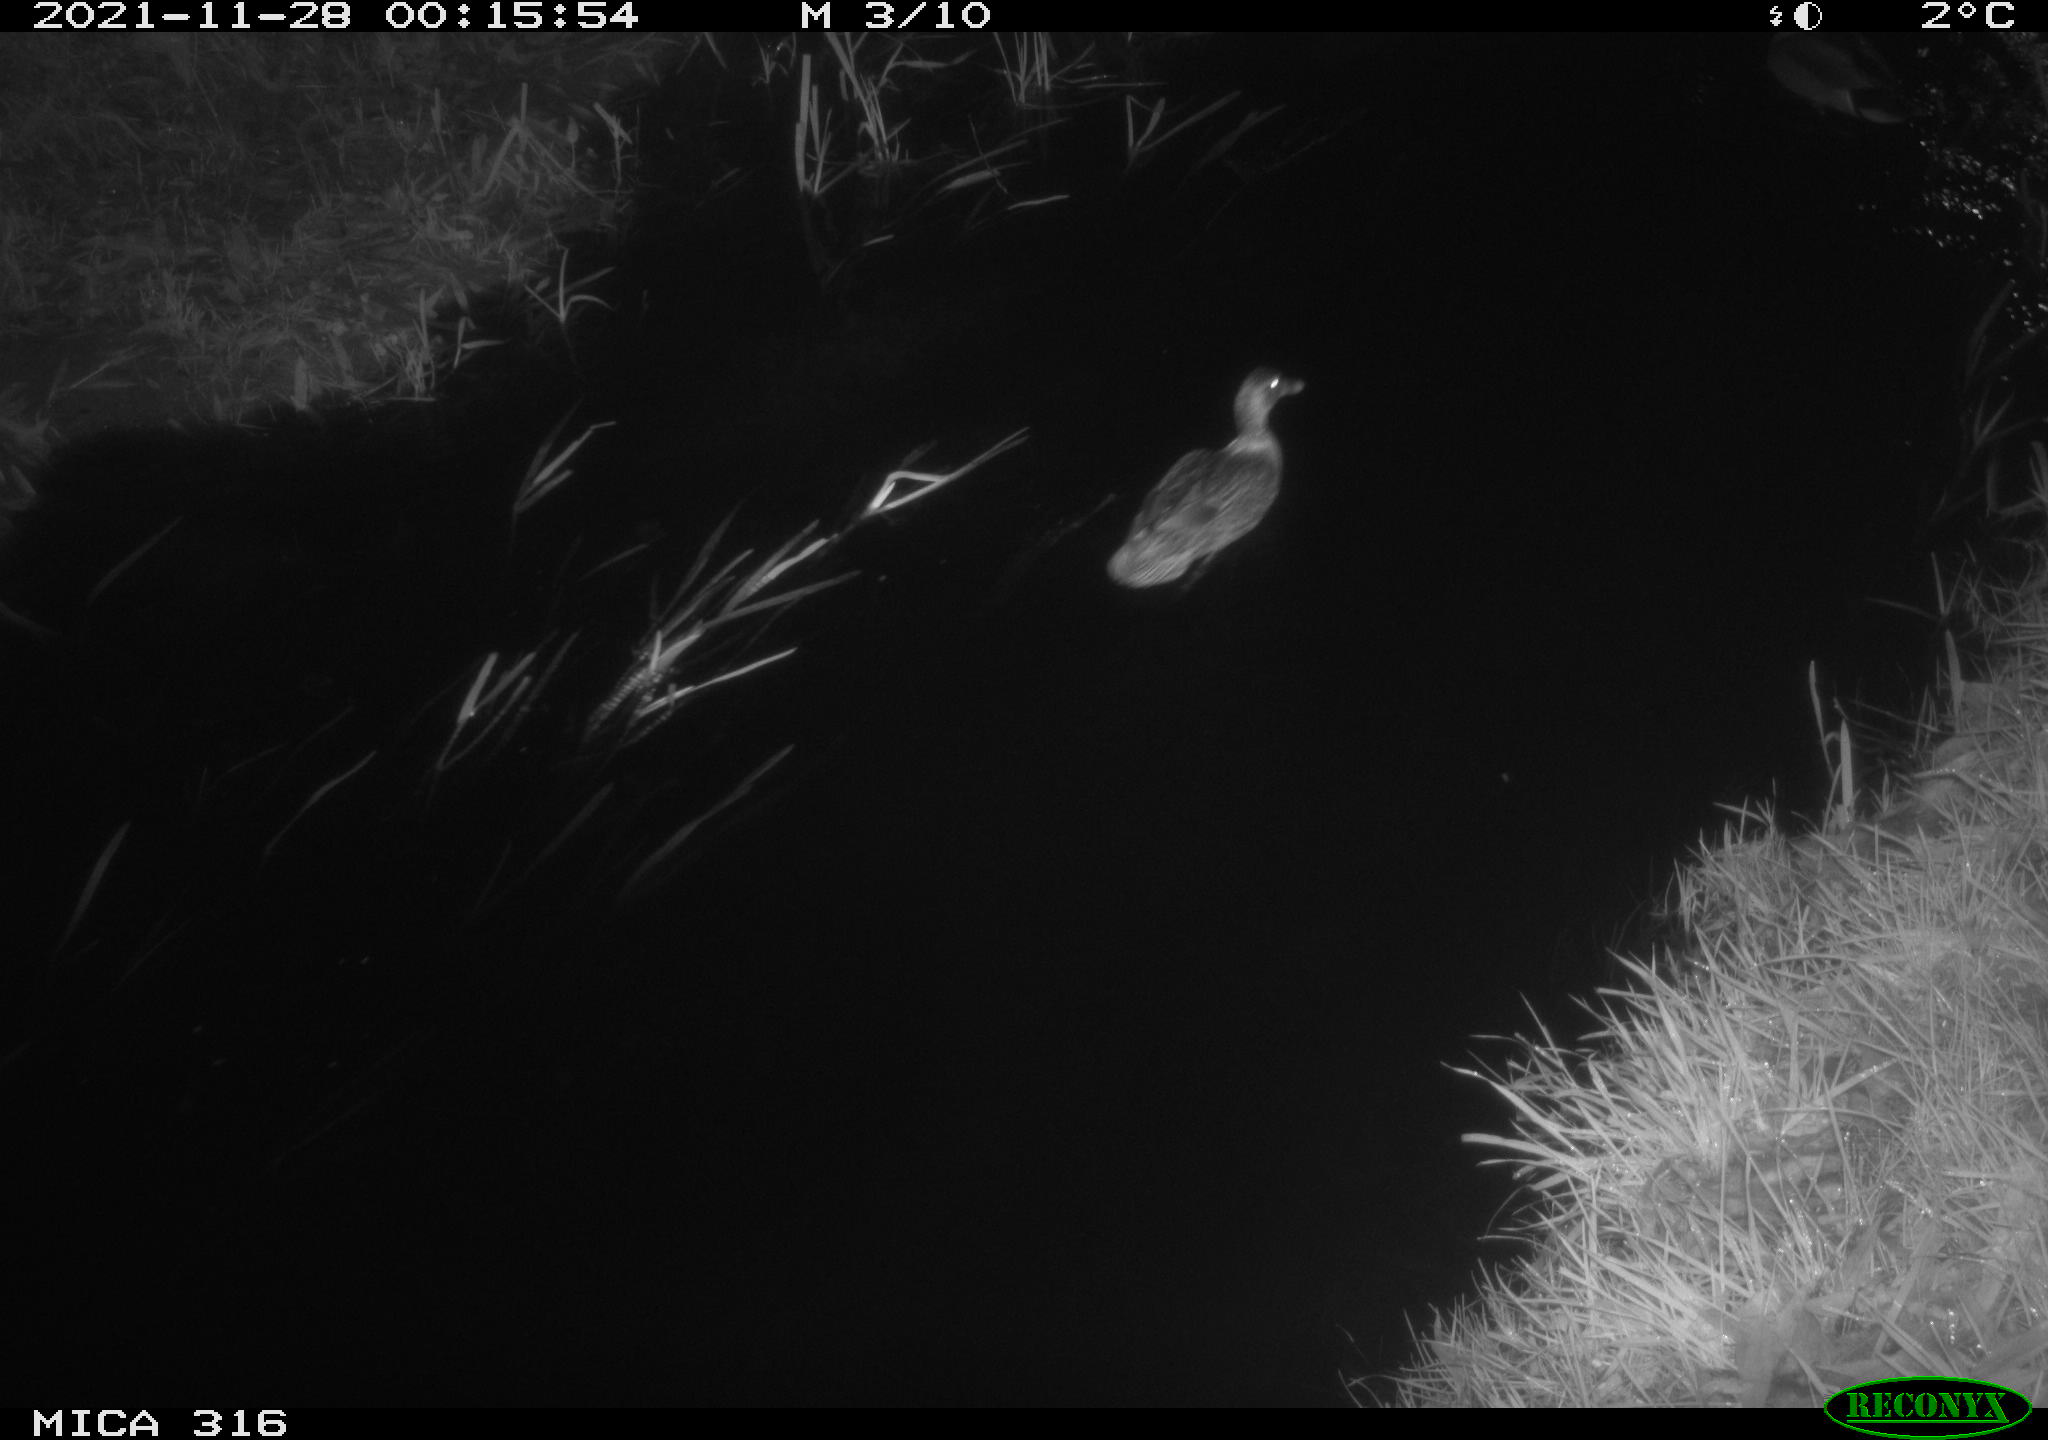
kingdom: Animalia
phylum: Chordata
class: Aves
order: Anseriformes
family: Anatidae
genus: Anas
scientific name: Anas platyrhynchos
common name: Mallard
